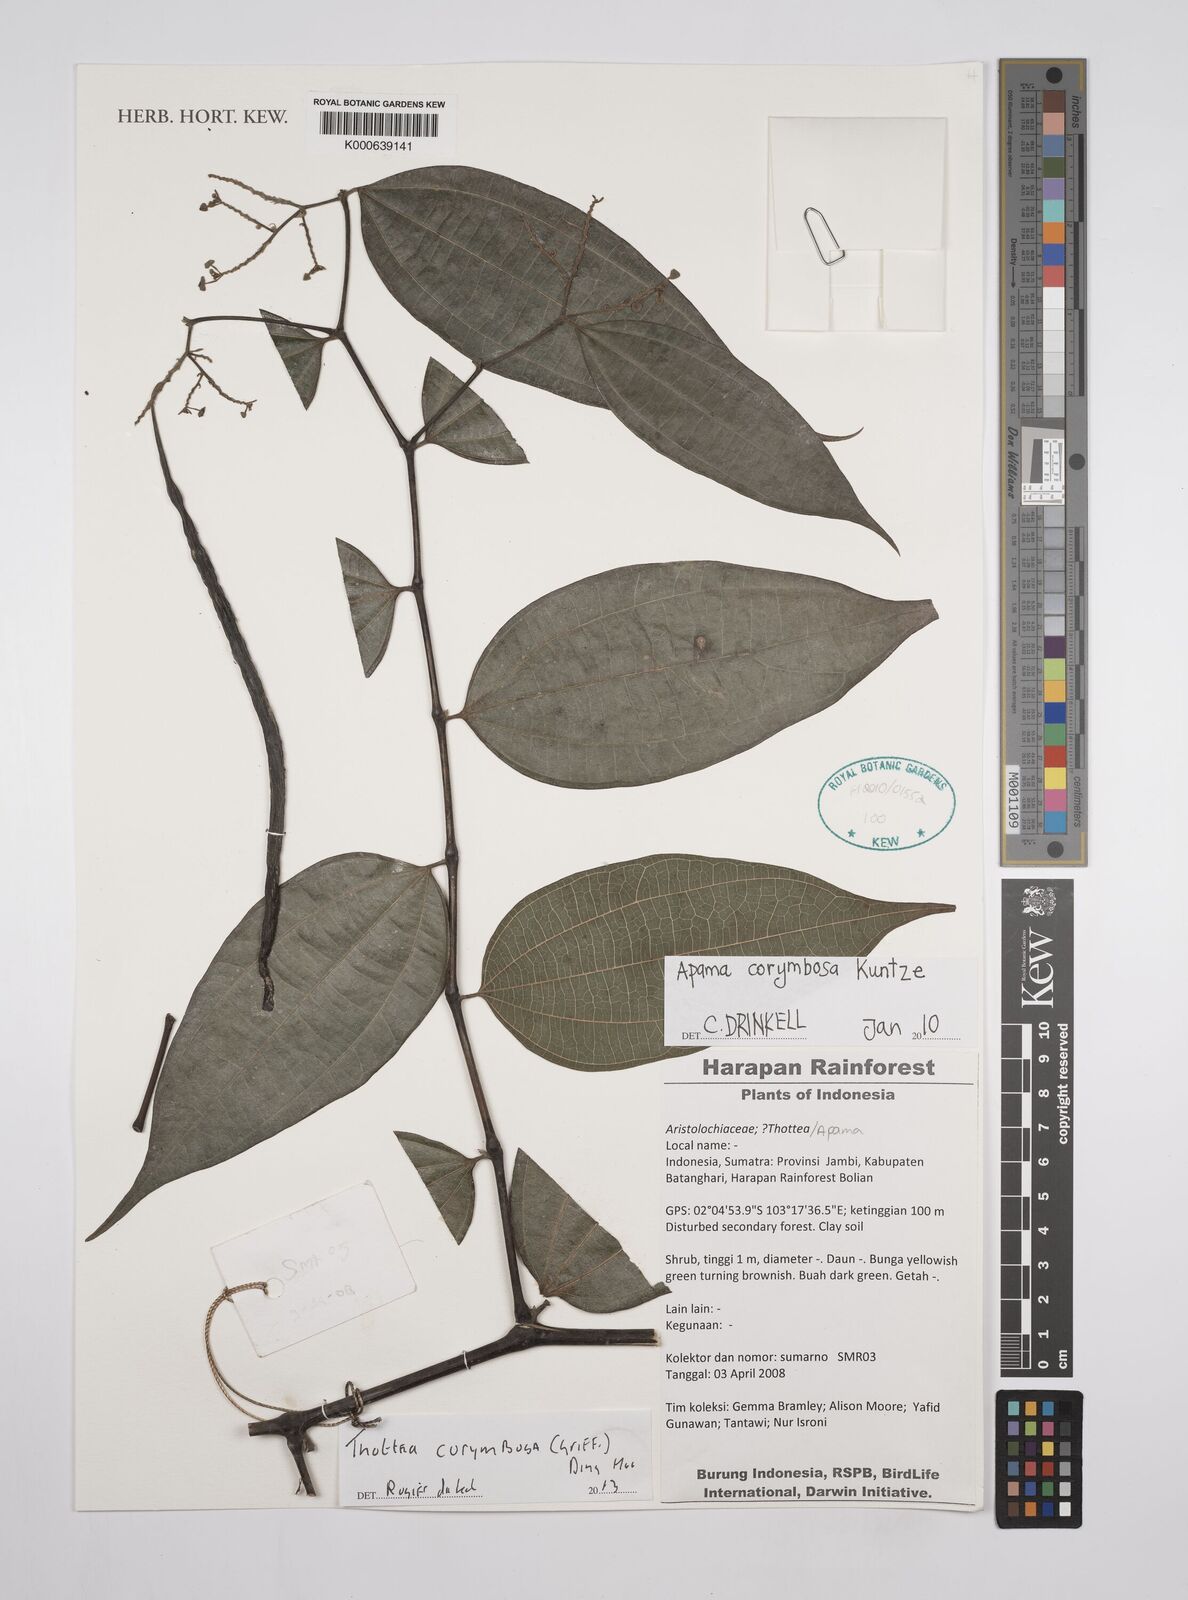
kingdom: Plantae
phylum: Tracheophyta
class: Magnoliopsida
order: Piperales
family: Aristolochiaceae
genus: Thottea
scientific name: Thottea
